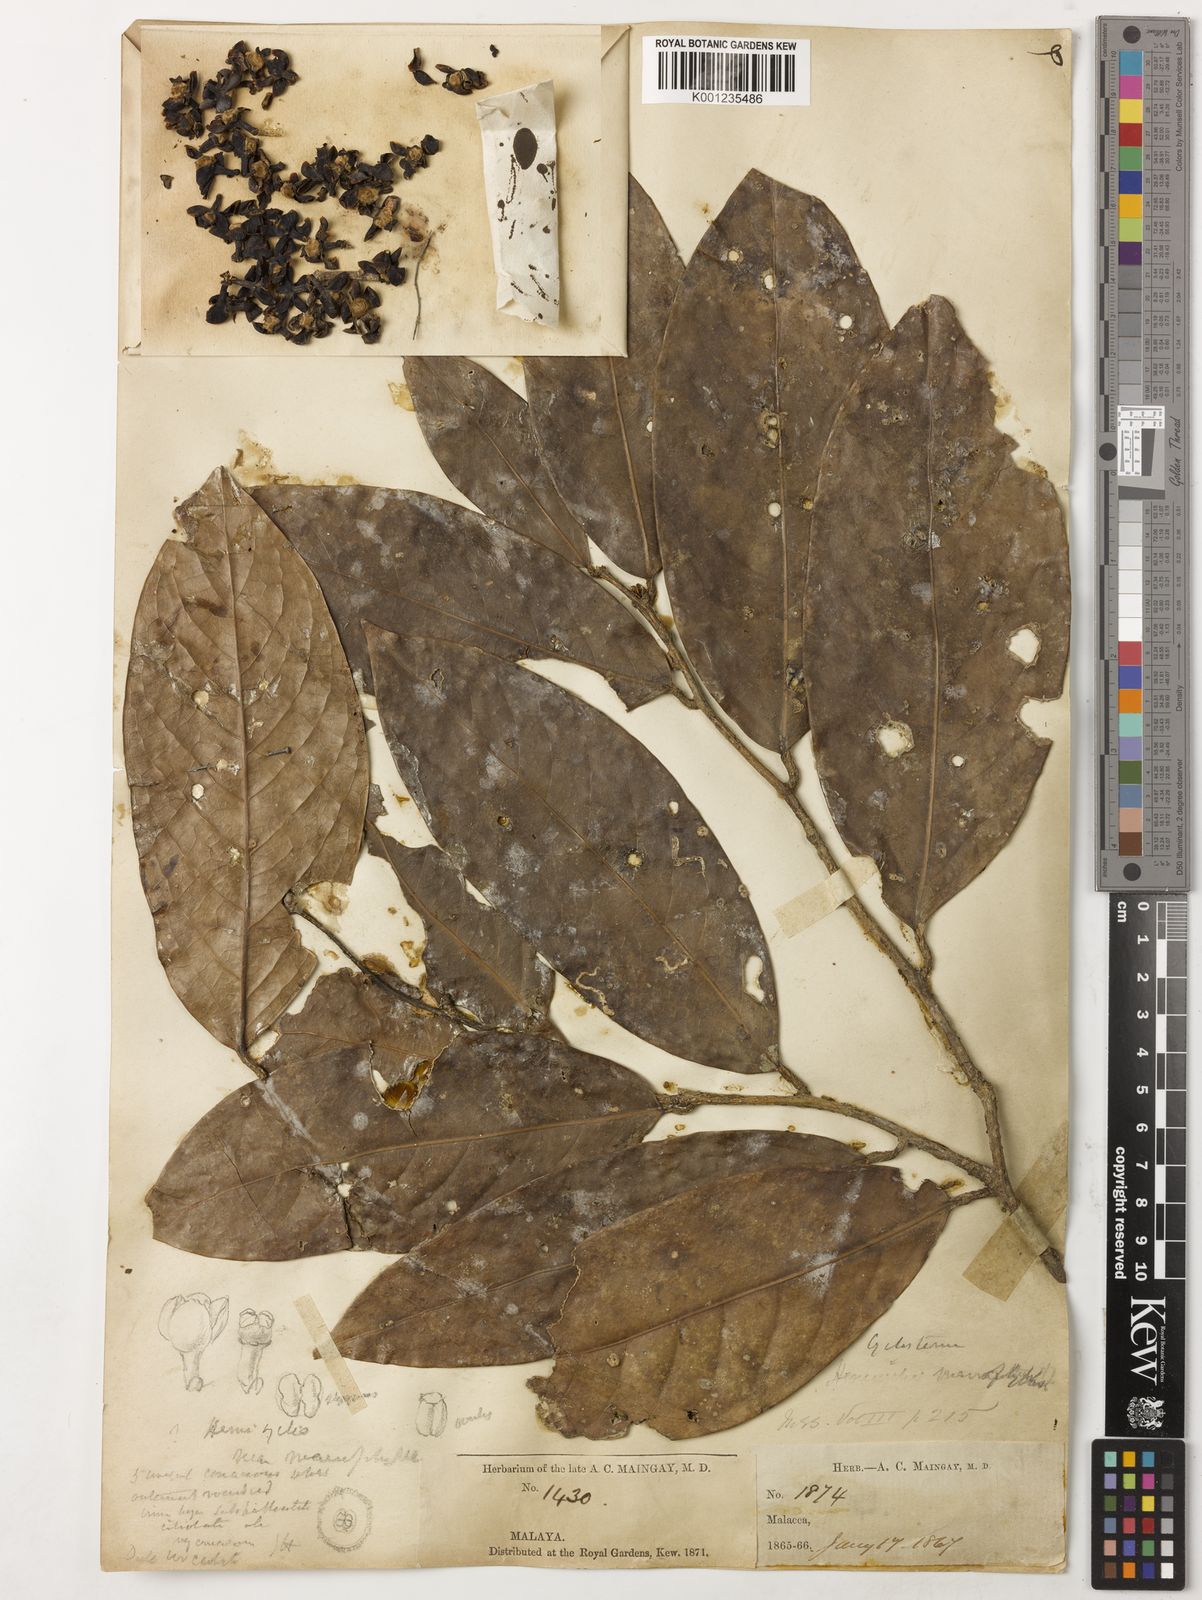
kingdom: Plantae
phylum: Tracheophyta
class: Magnoliopsida
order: Malpighiales
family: Putranjivaceae
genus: Drypetes
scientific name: Drypetes longifolia
